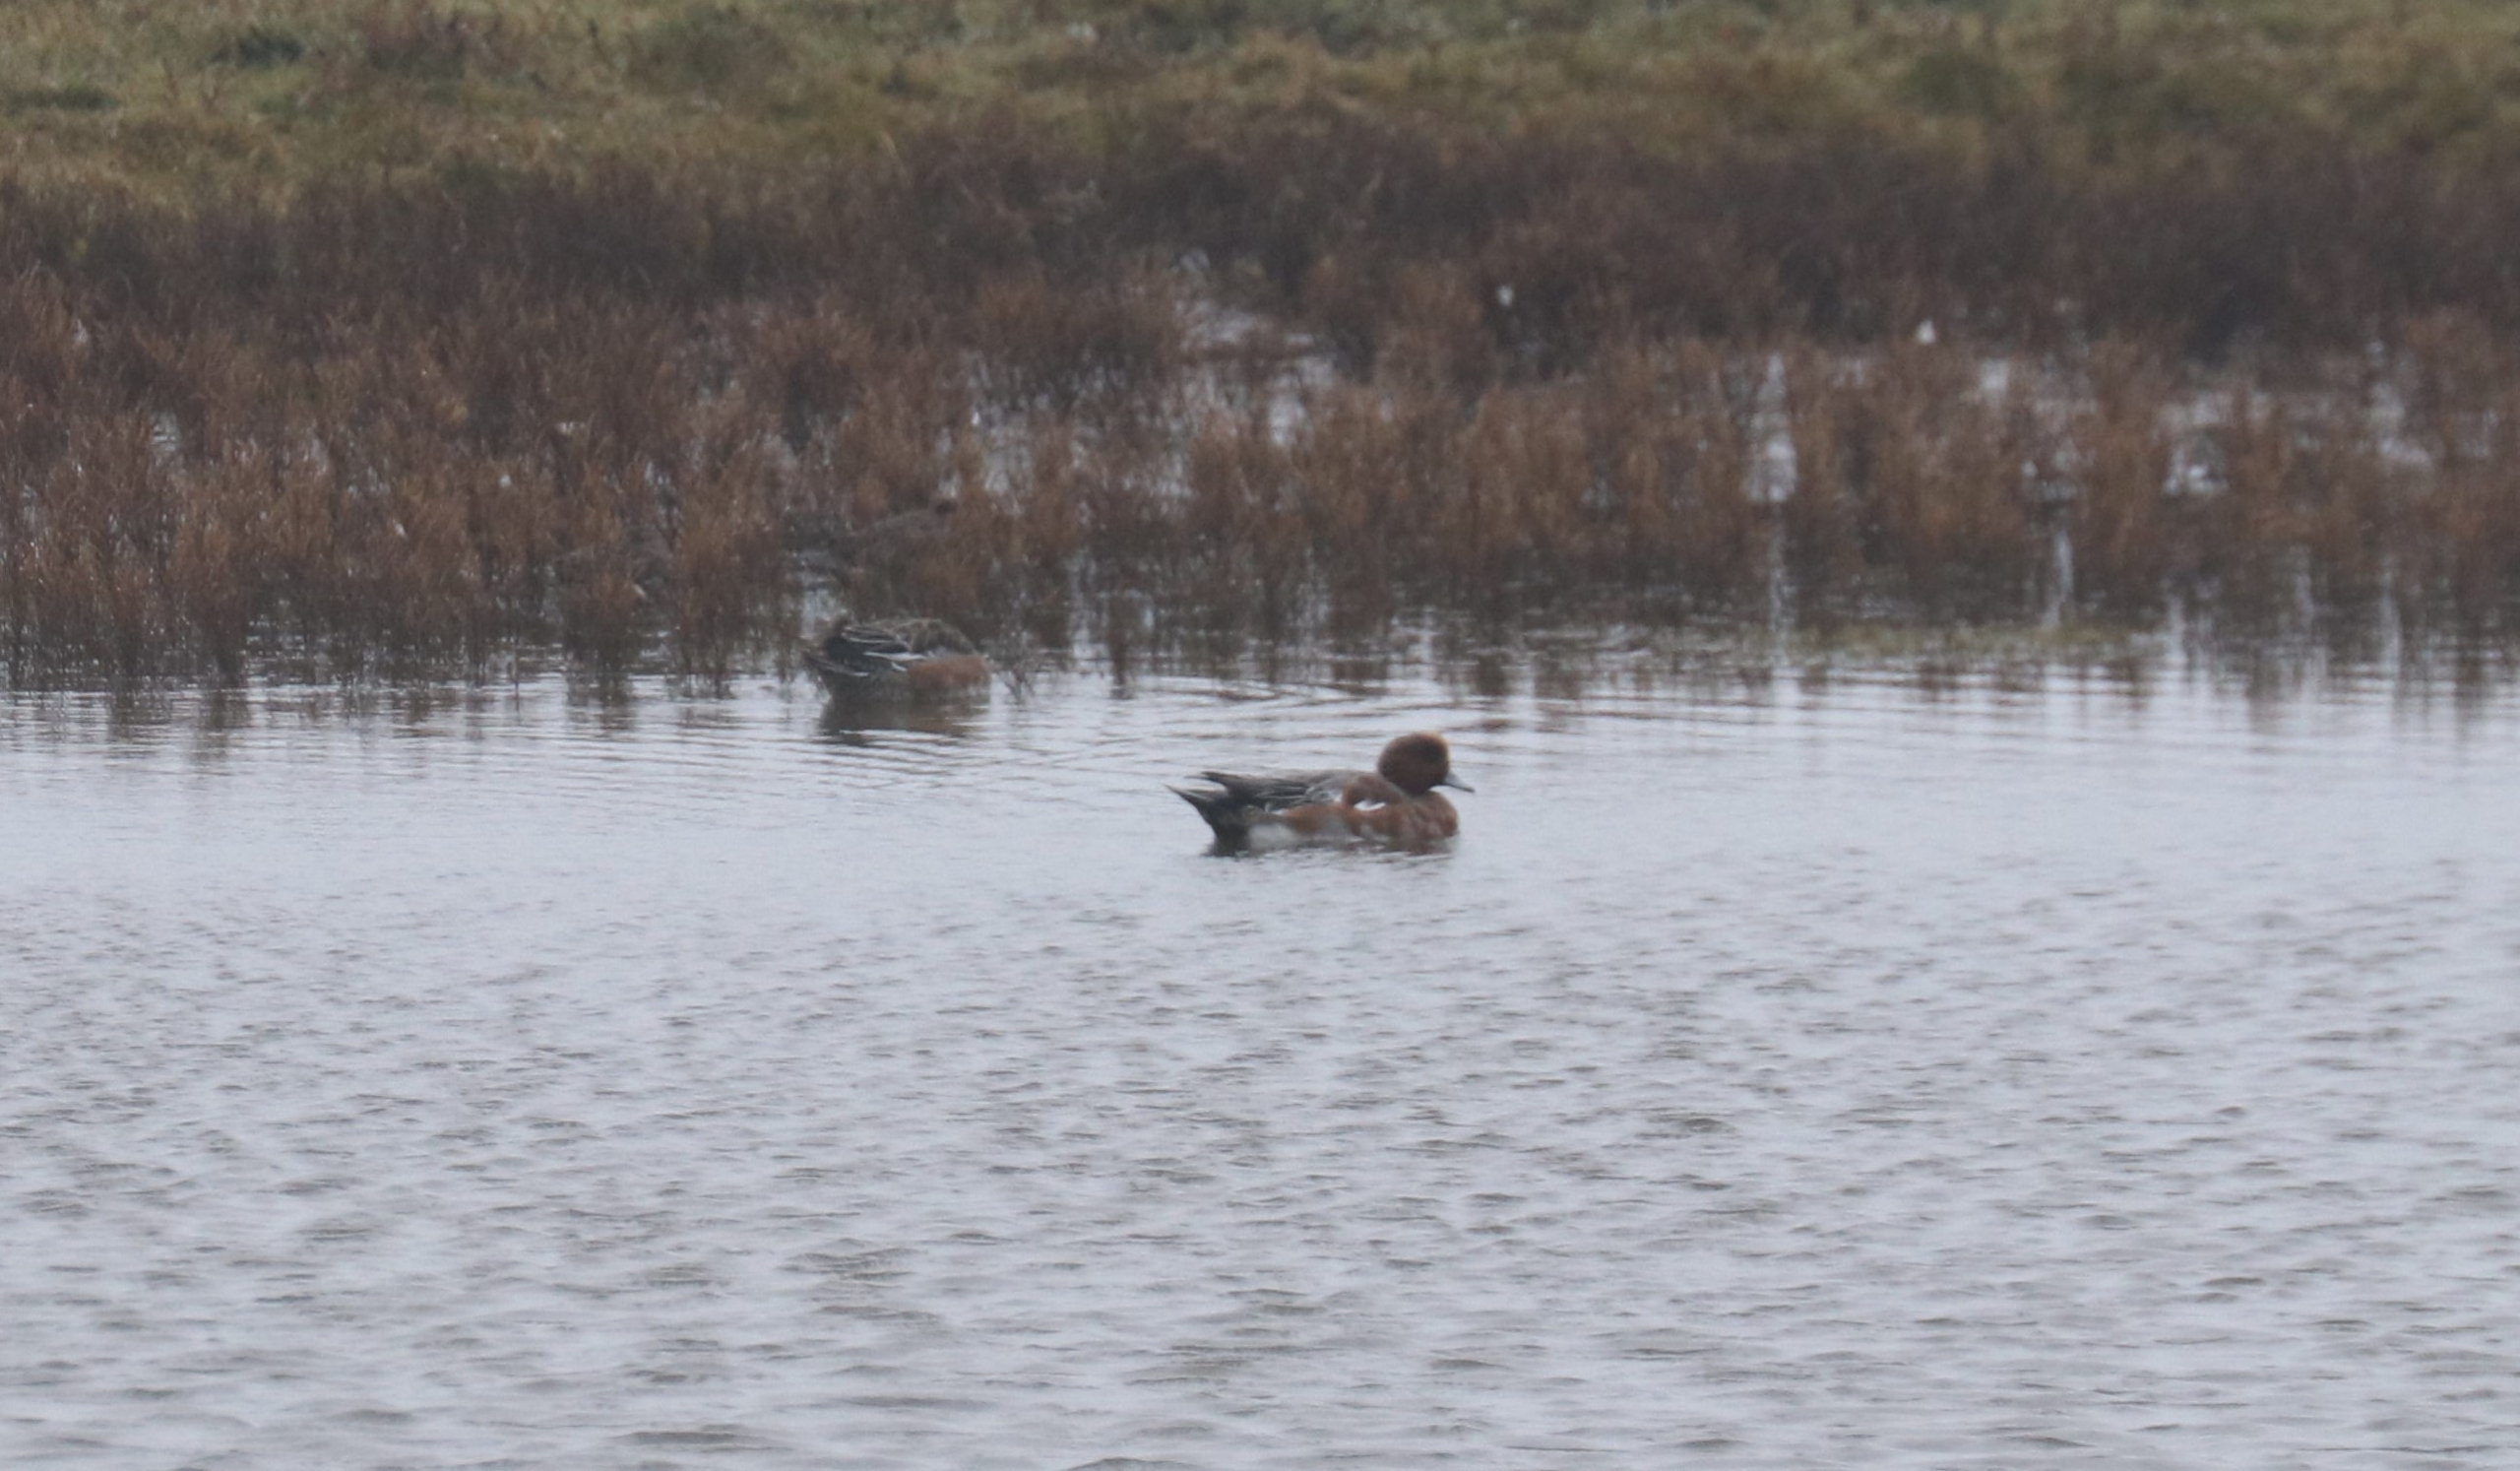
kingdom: Animalia
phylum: Chordata
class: Aves
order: Anseriformes
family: Anatidae
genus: Mareca
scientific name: Mareca penelope
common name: Pibeand
